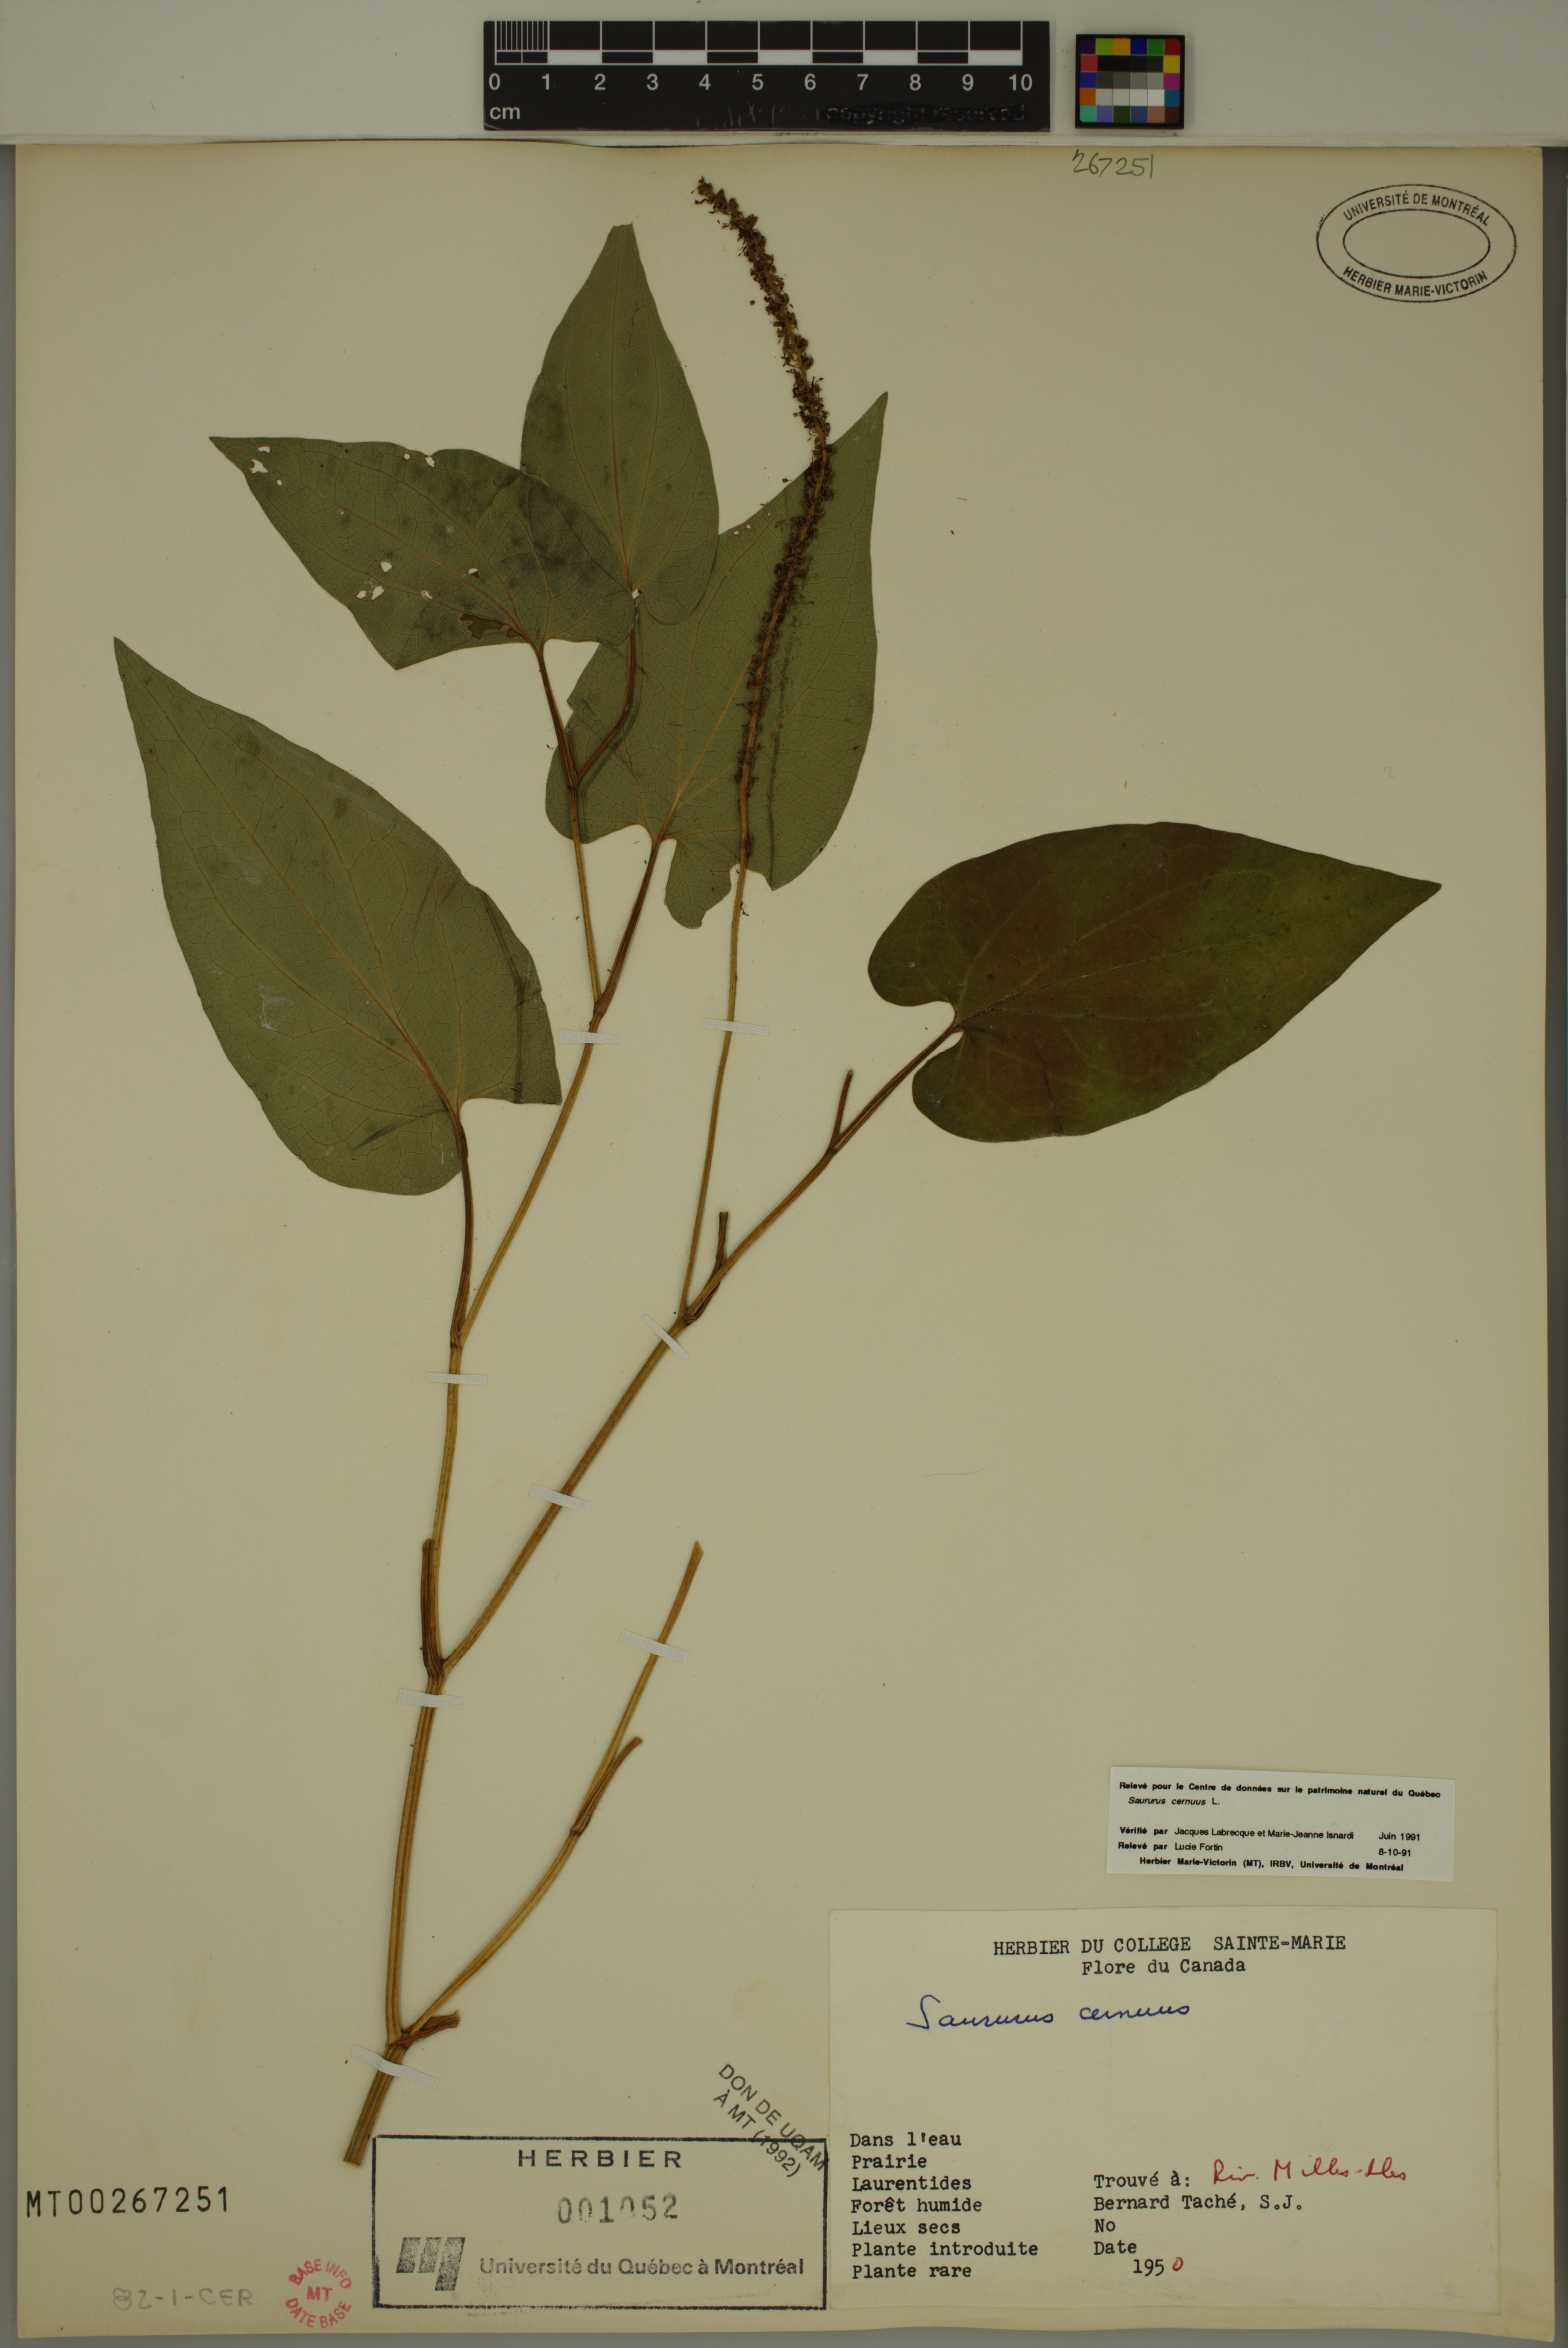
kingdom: Plantae
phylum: Tracheophyta
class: Magnoliopsida
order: Piperales
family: Saururaceae
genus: Saururus
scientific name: Saururus cernuus
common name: Lizard's-tail
